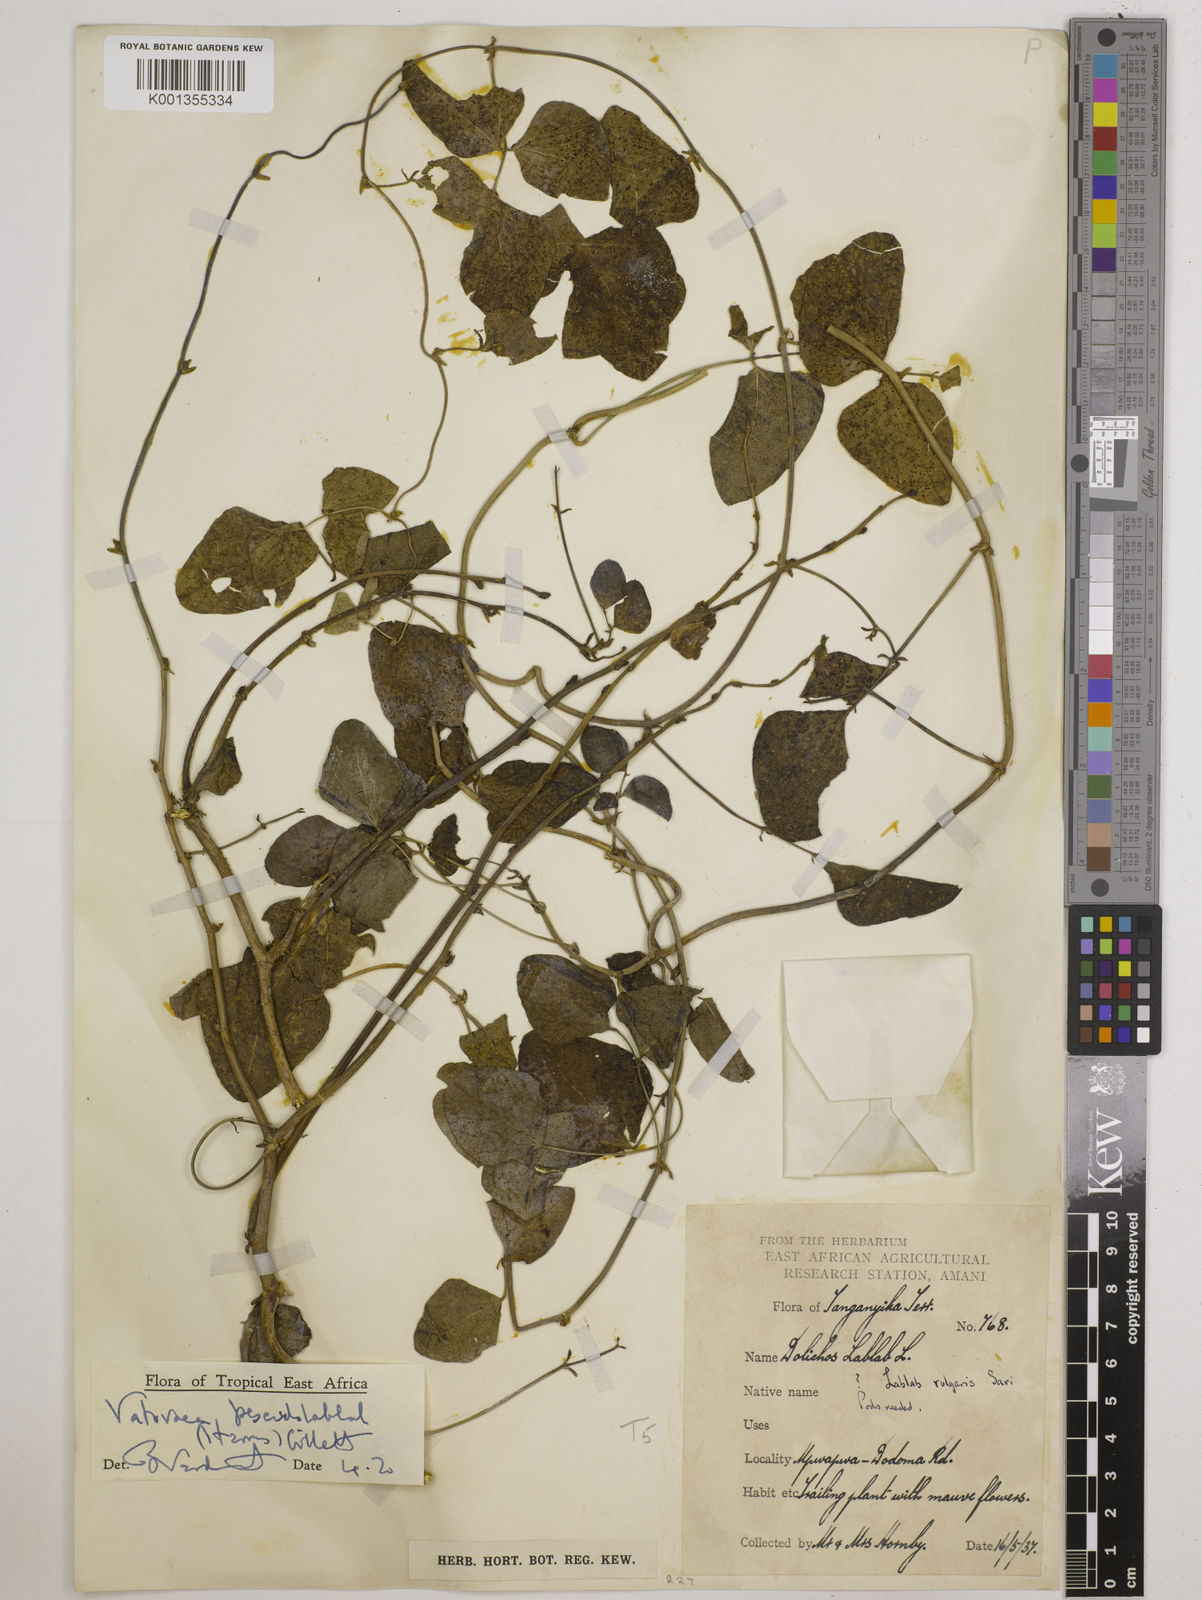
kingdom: Plantae
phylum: Tracheophyta
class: Magnoliopsida
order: Fabales
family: Fabaceae
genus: Vatovaea
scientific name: Vatovaea pseudolablab
